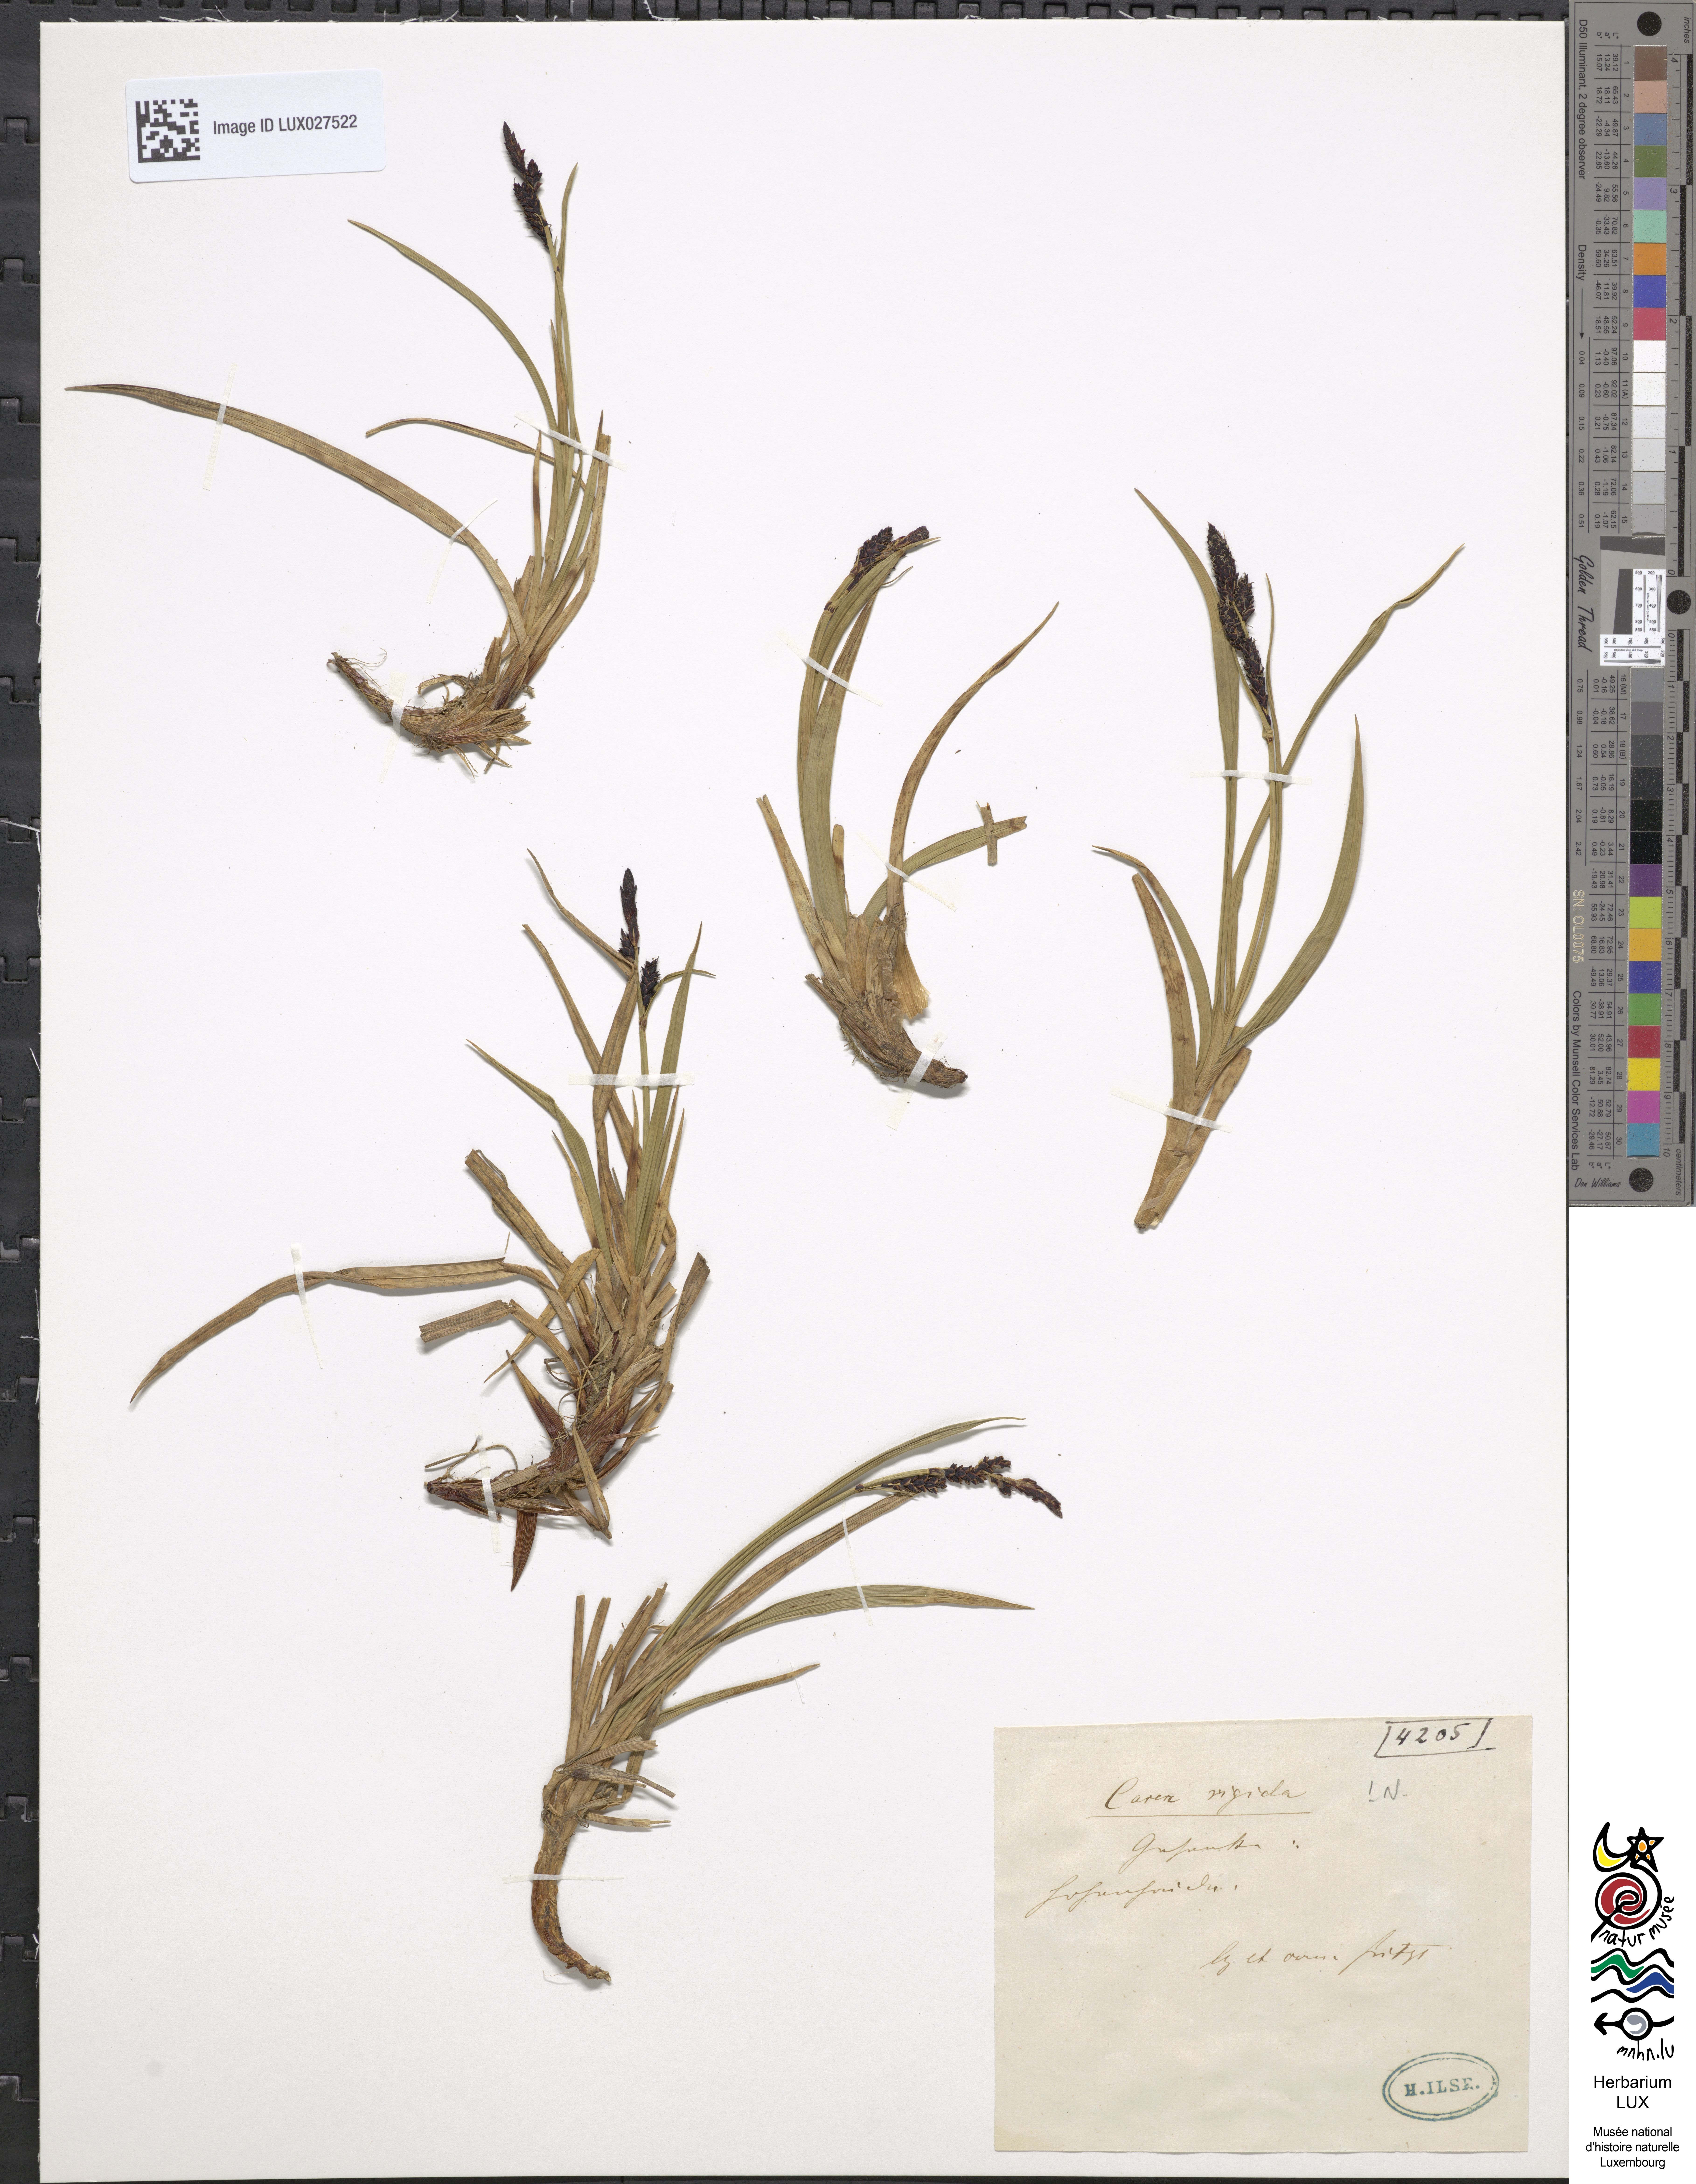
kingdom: Plantae
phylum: Tracheophyta
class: Liliopsida
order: Poales
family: Cyperaceae
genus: Carex
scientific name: Carex ferruginea
